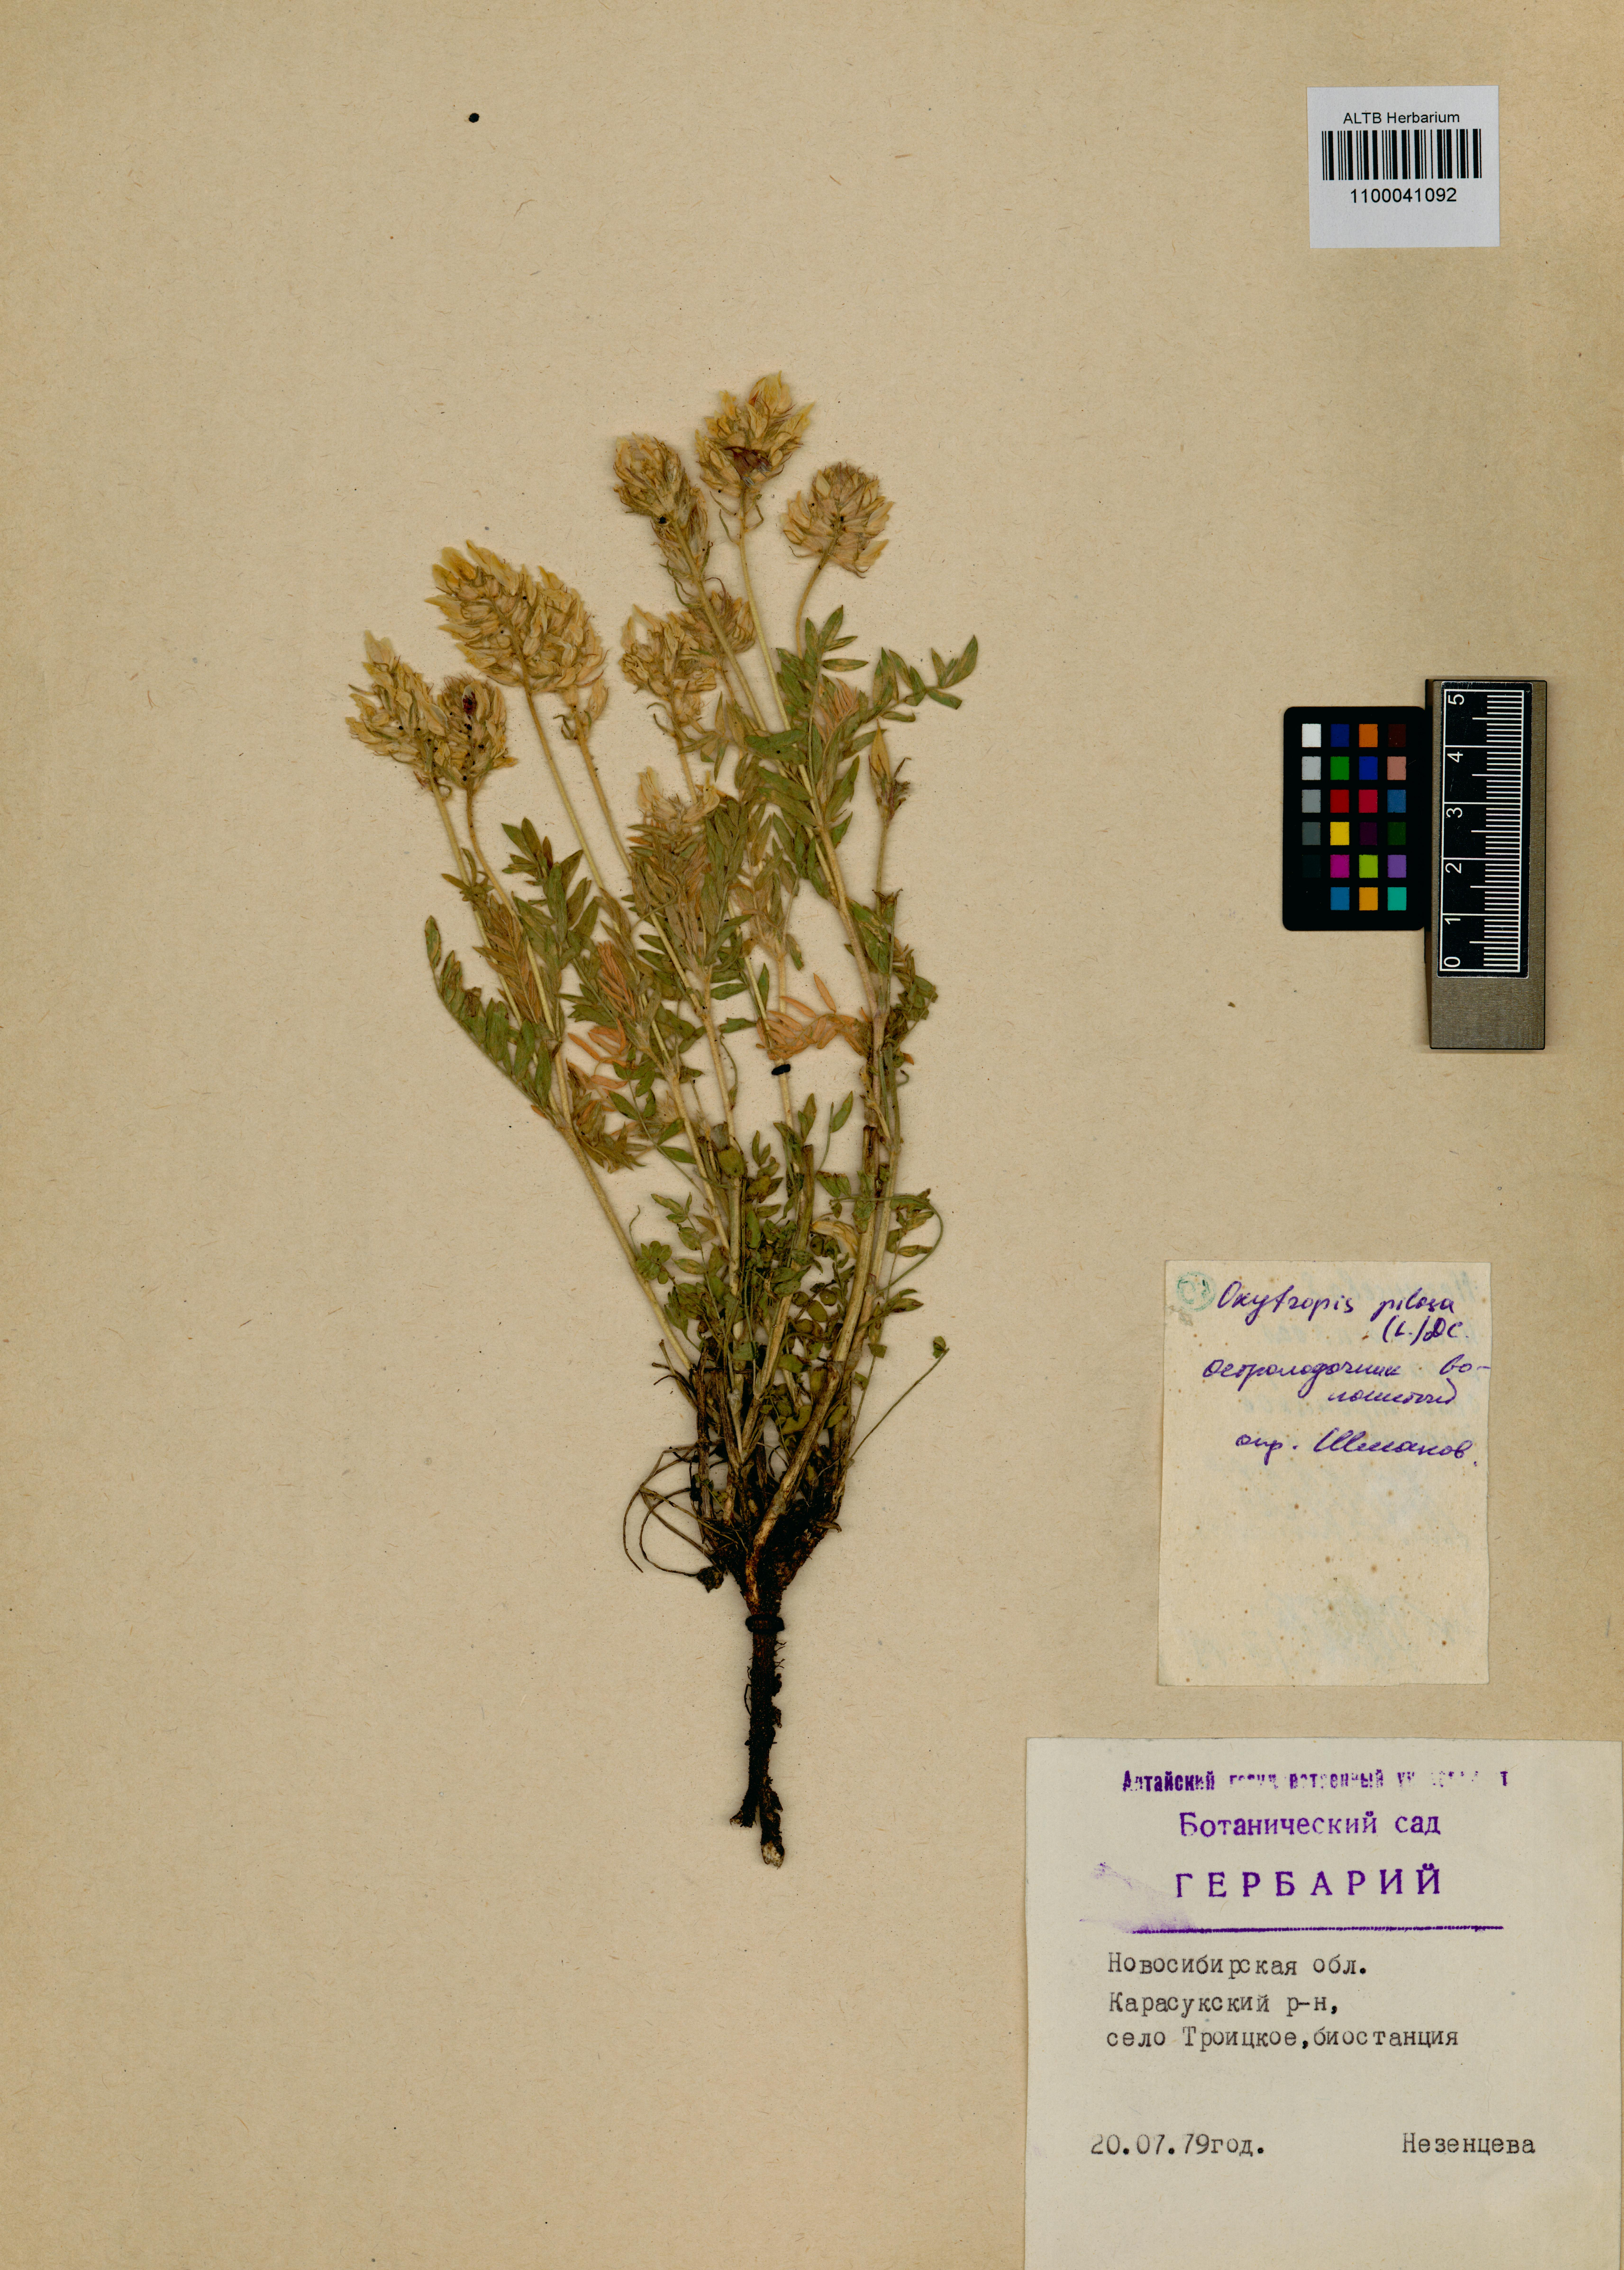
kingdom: Plantae
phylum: Tracheophyta
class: Magnoliopsida
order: Fabales
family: Fabaceae
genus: Oxytropis
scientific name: Oxytropis pilosa
